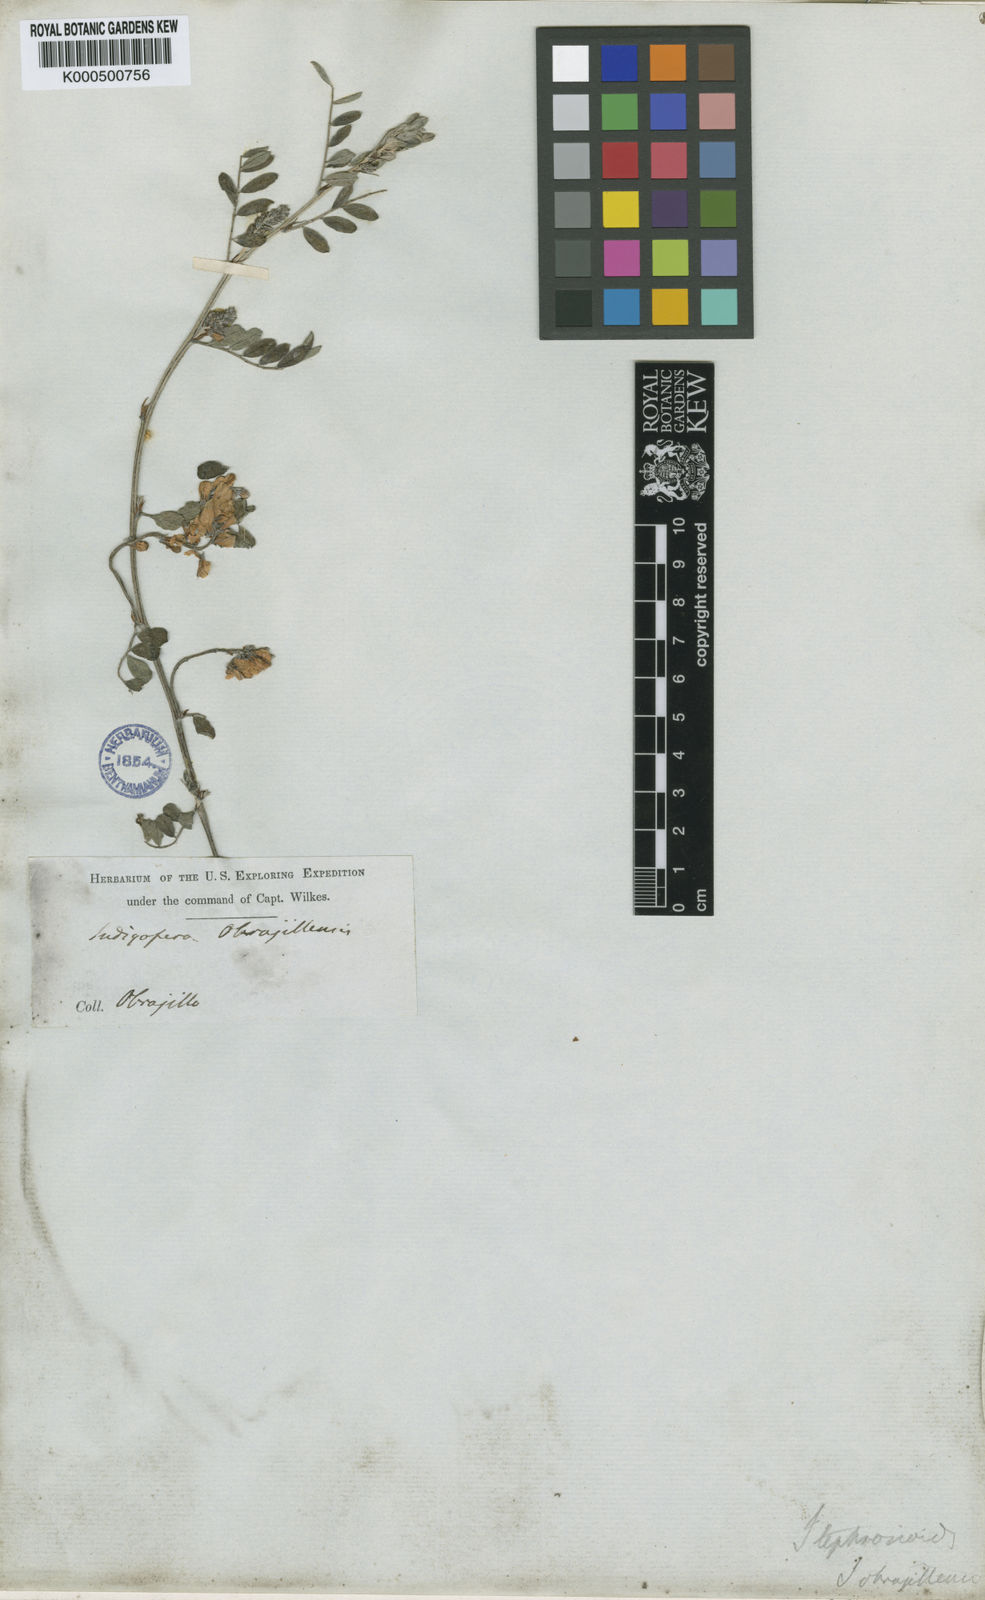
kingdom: Plantae
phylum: Tracheophyta
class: Magnoliopsida
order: Fabales
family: Fabaceae
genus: Indigofera
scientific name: Indigofera tephrosioides
